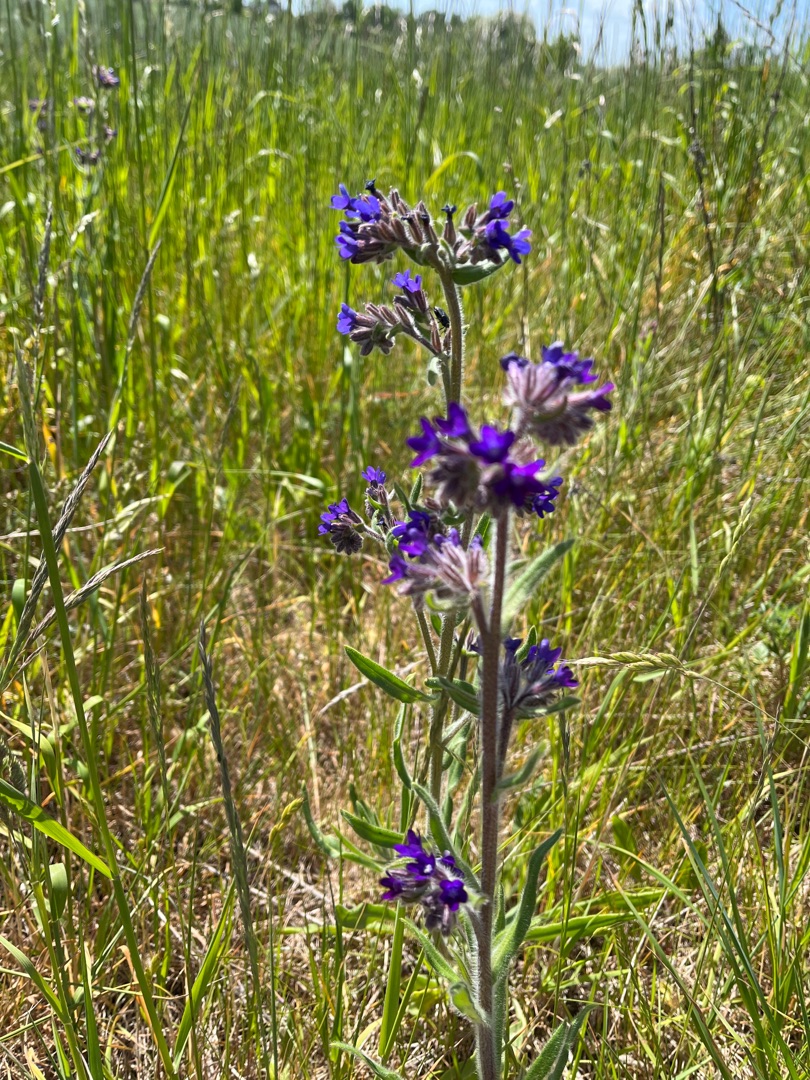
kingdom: Plantae
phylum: Tracheophyta
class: Magnoliopsida
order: Boraginales
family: Boraginaceae
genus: Anchusa
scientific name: Anchusa officinalis
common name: Læge-oksetunge
